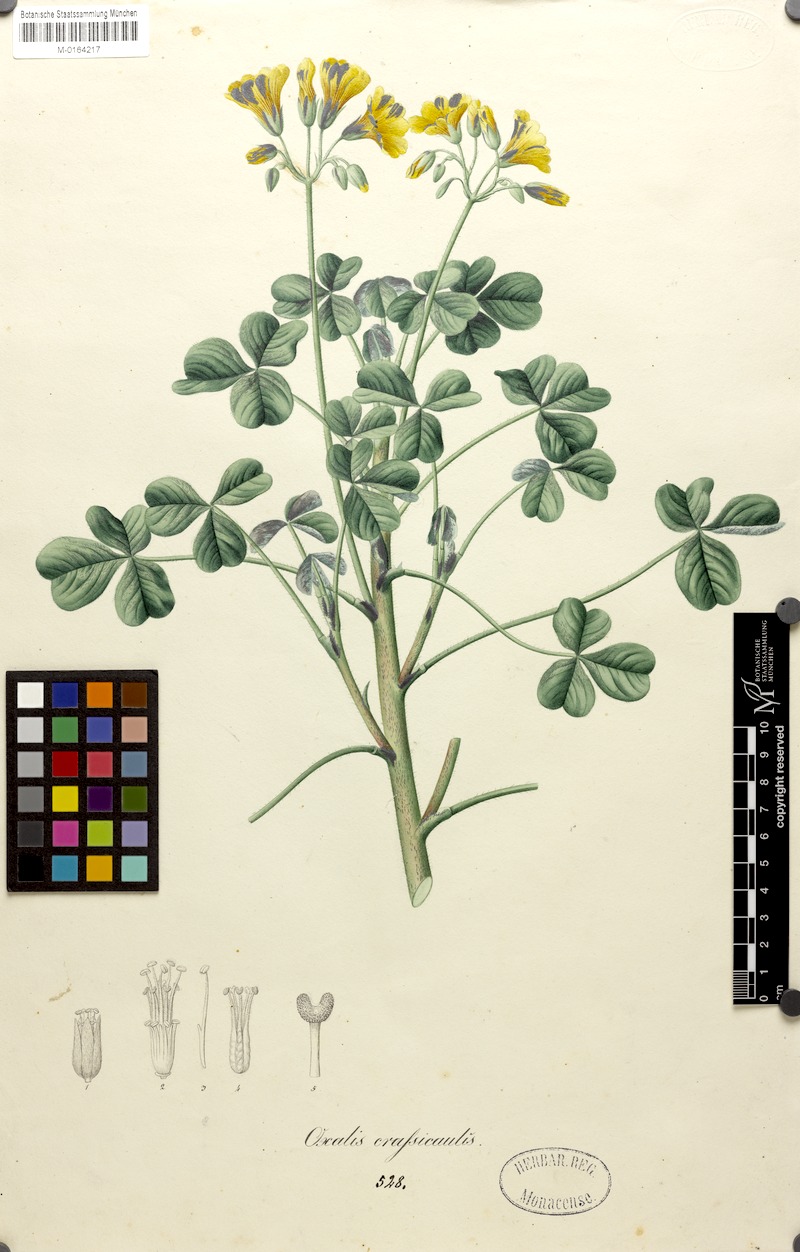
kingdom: Plantae
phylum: Tracheophyta
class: Magnoliopsida
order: Oxalidales
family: Oxalidaceae
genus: Oxalis
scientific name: Oxalis tuberosa
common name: New zealand-yam
